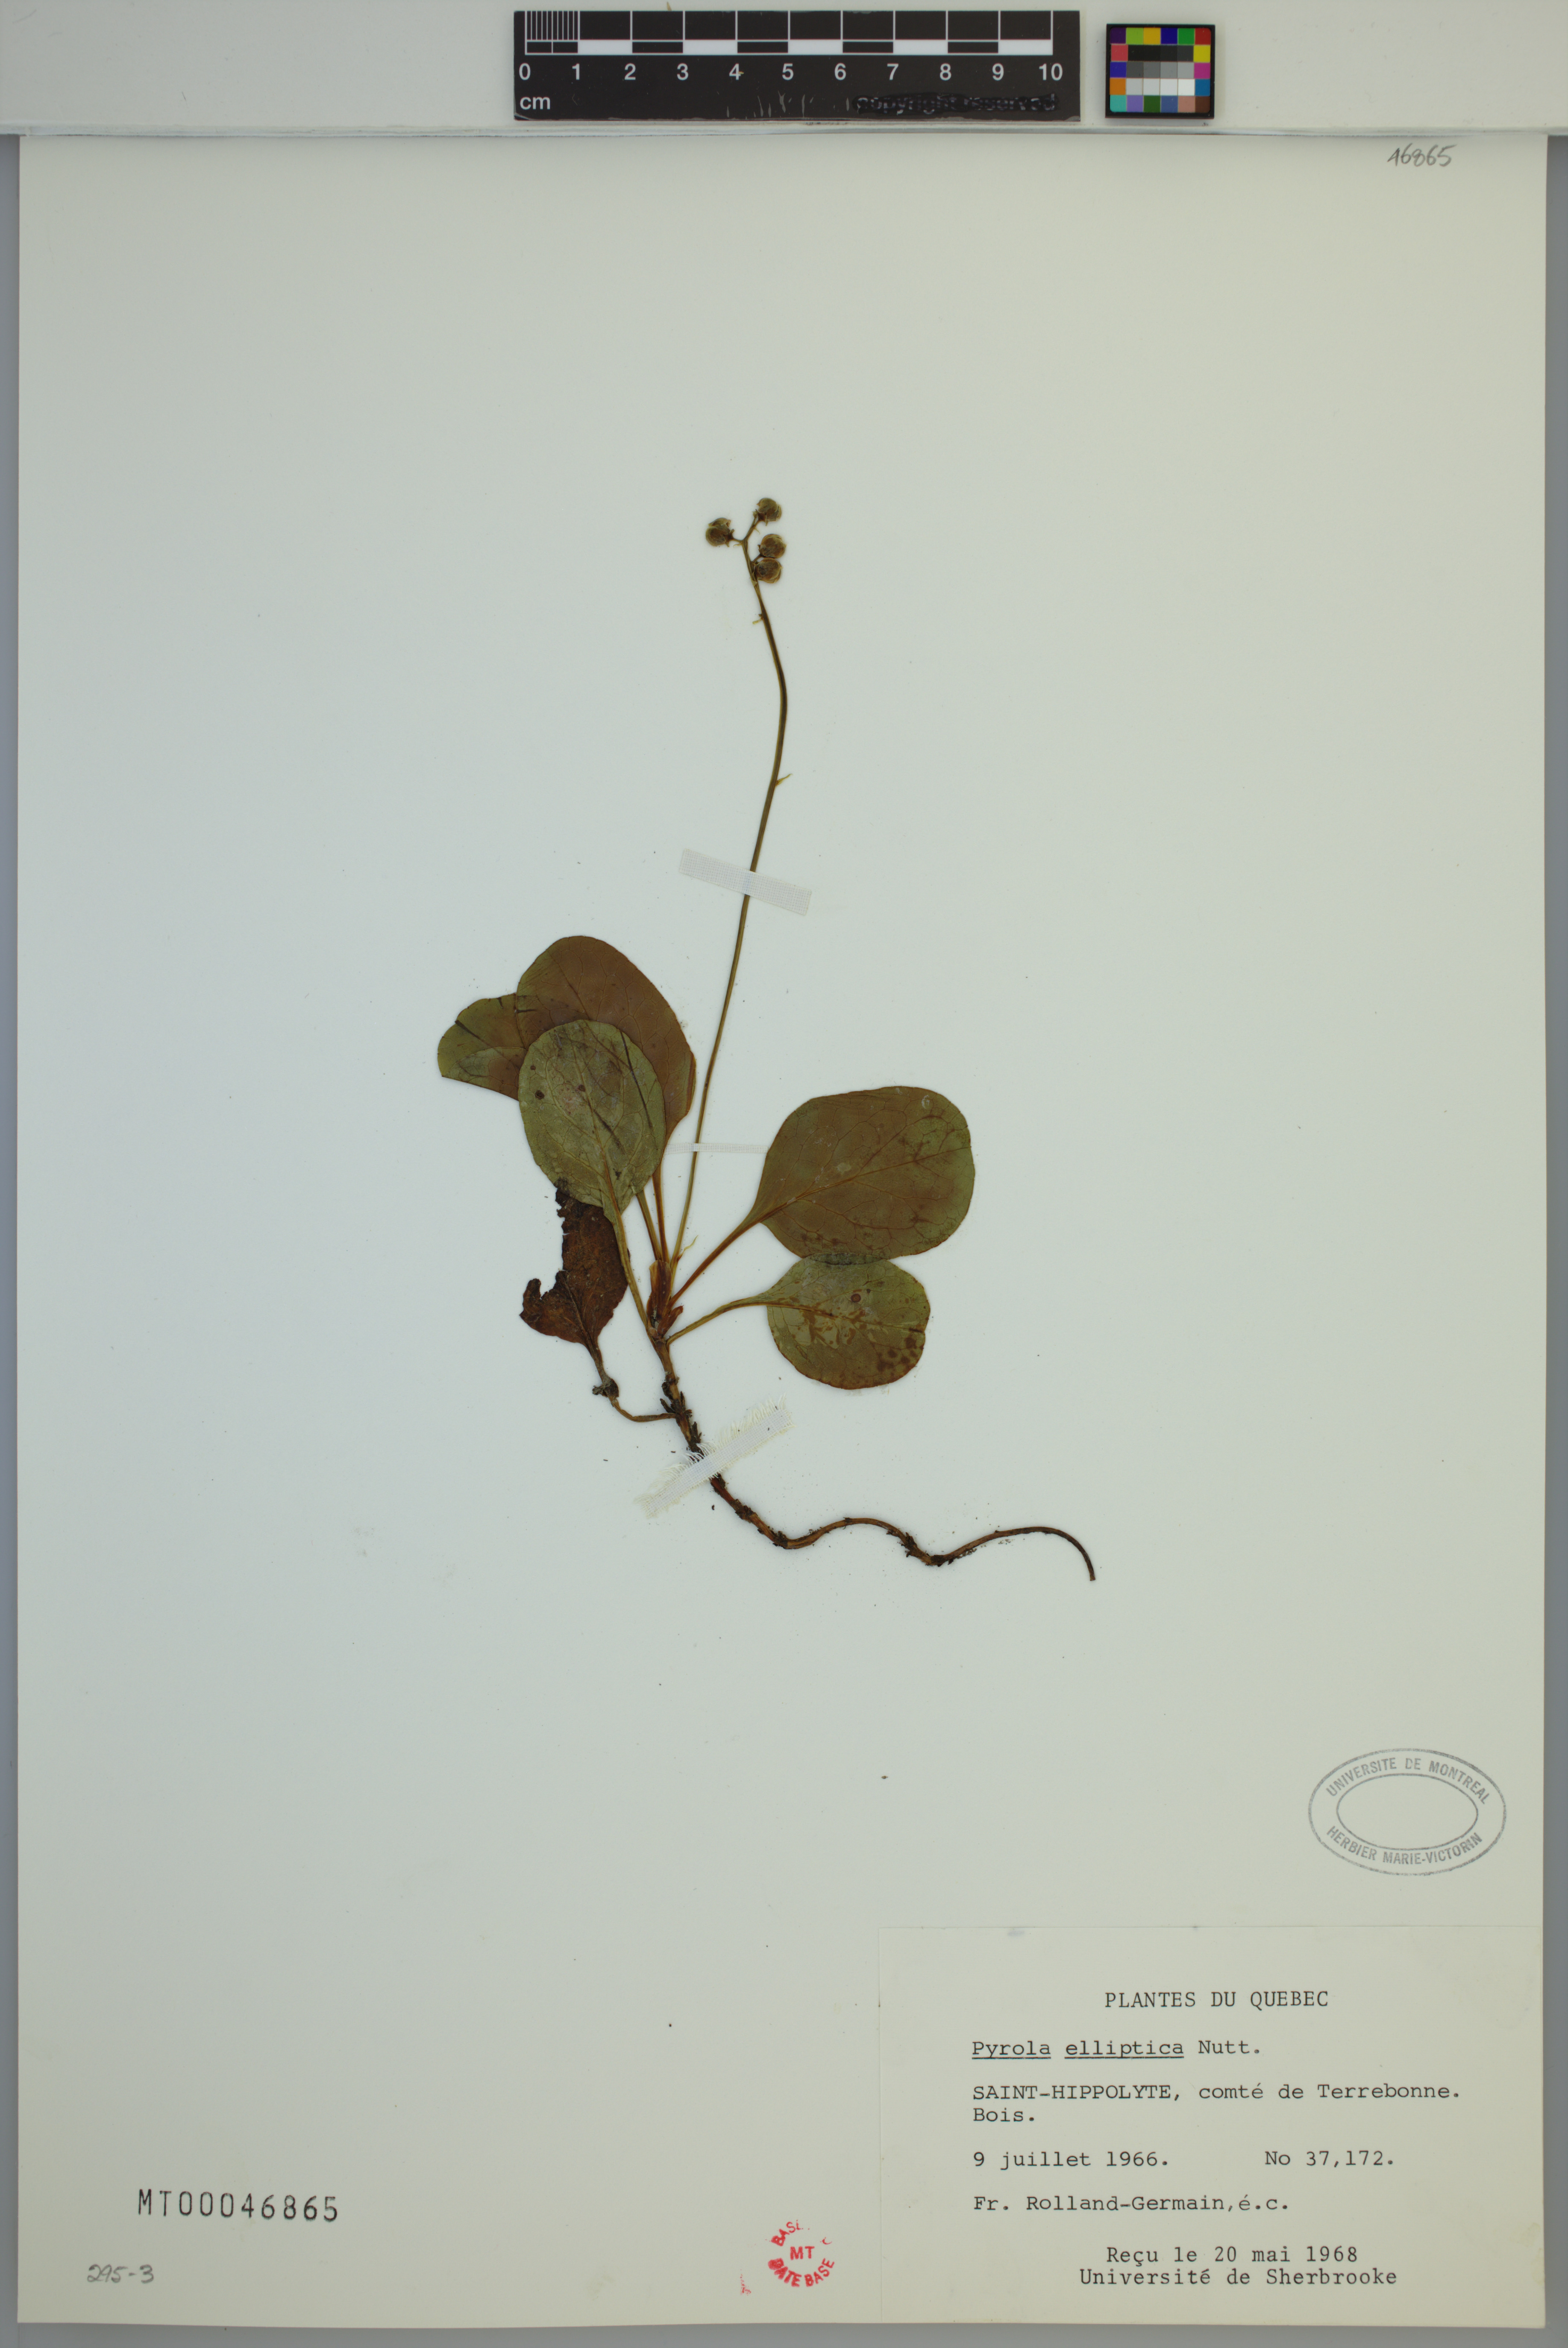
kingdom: Plantae
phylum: Tracheophyta
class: Magnoliopsida
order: Ericales
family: Ericaceae
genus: Pyrola
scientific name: Pyrola elliptica
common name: Shinleaf
